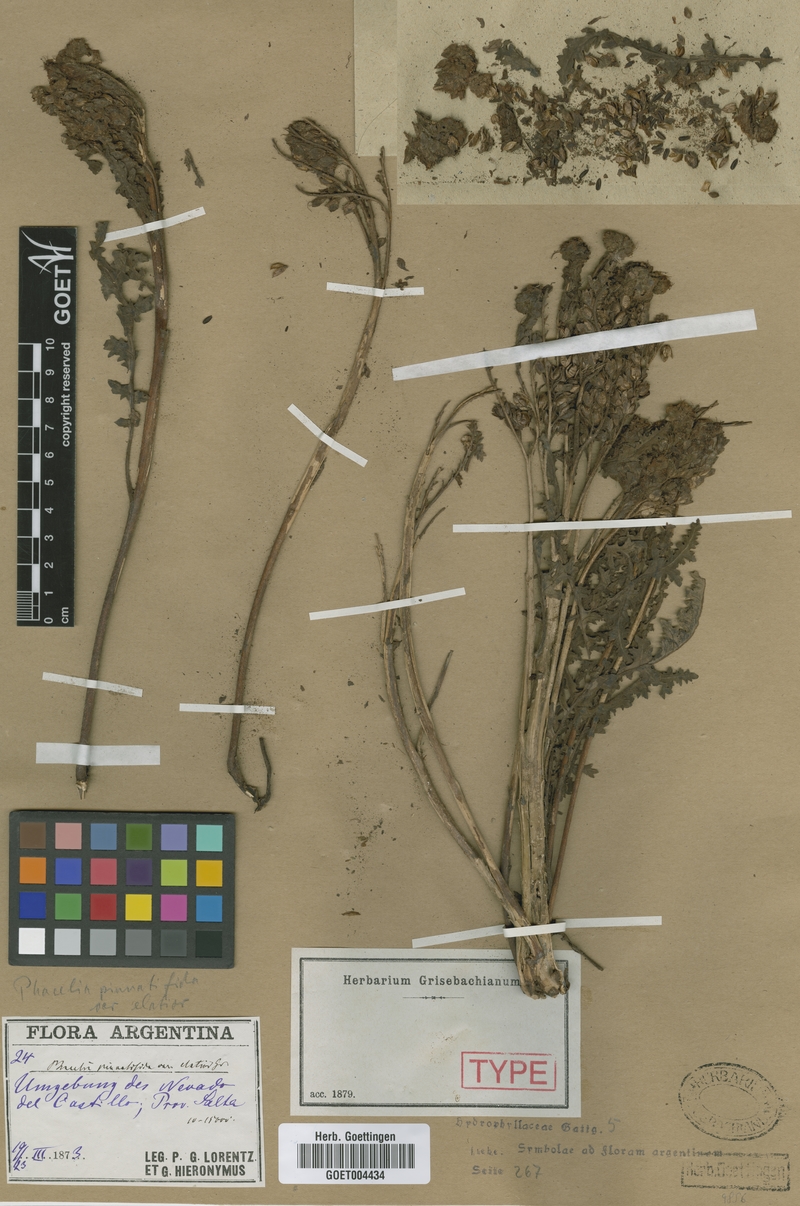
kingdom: Plantae
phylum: Tracheophyta
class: Magnoliopsida
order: Boraginales
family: Hydrophyllaceae
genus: Phacelia
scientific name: Phacelia pinnatifida
